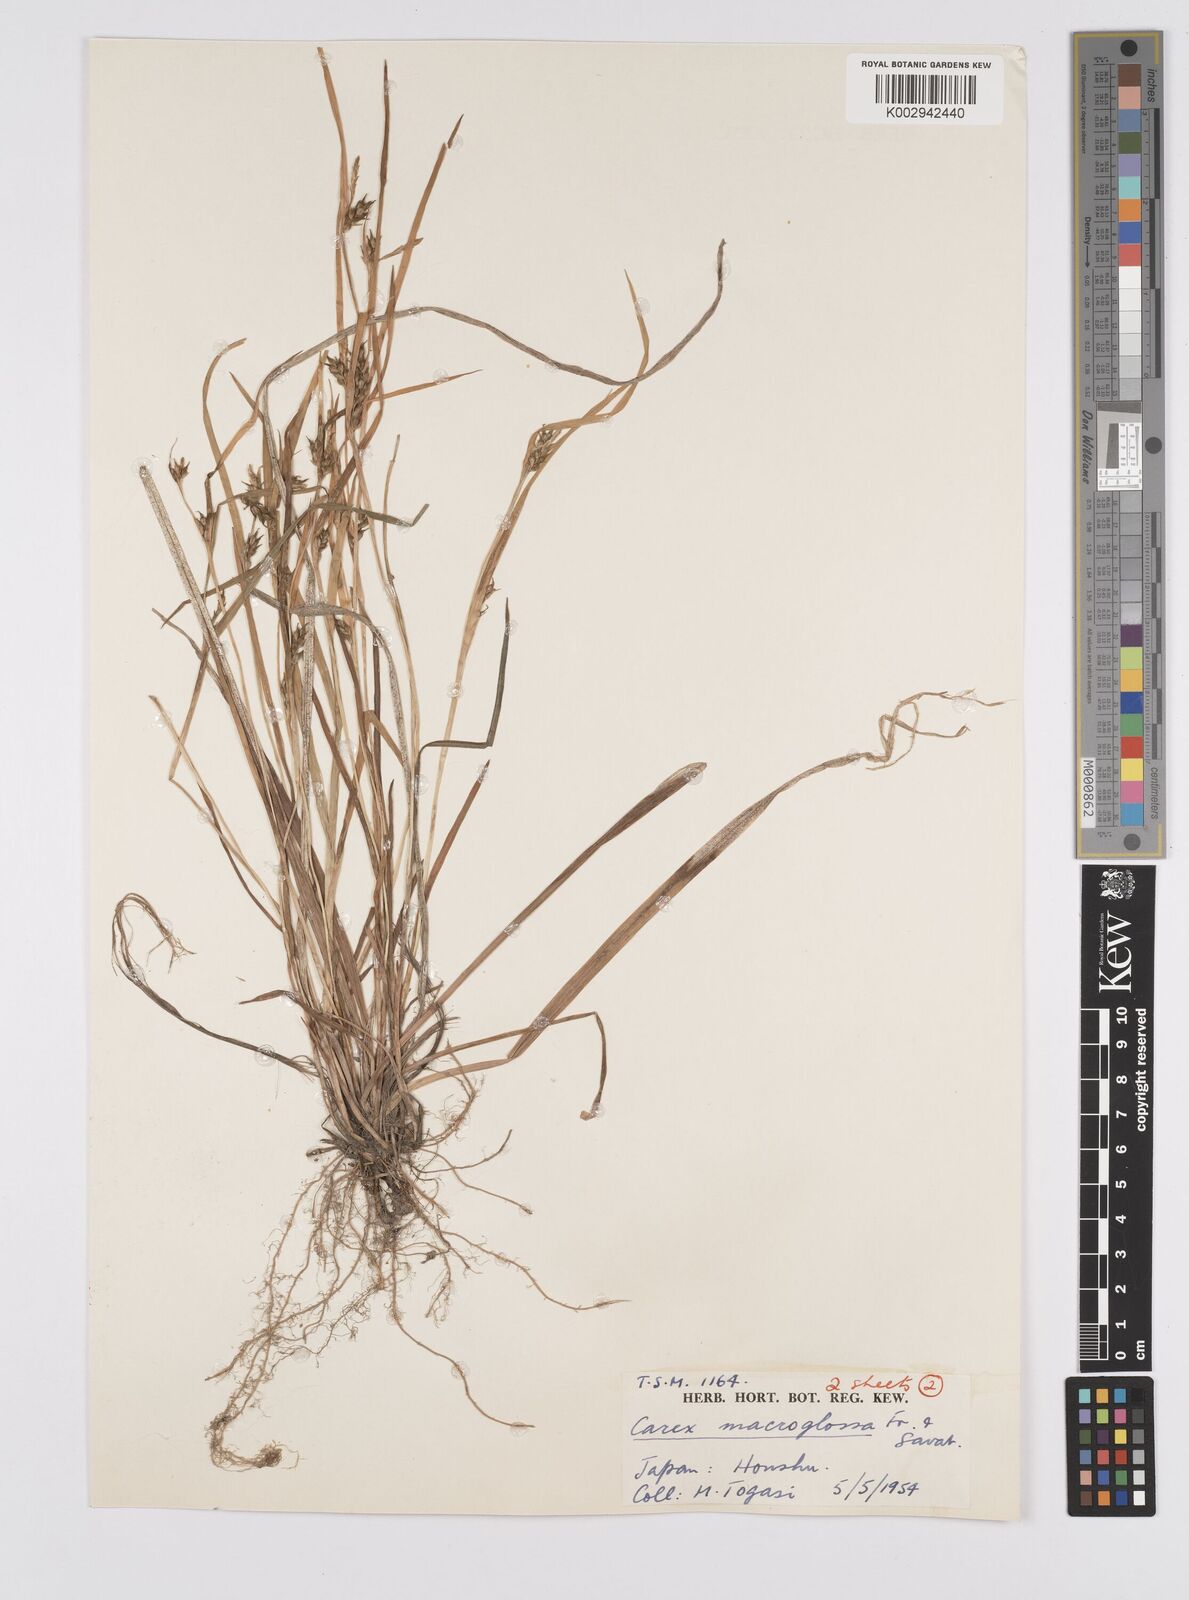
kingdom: Plantae
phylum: Tracheophyta
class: Liliopsida
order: Poales
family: Cyperaceae
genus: Carex
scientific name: Carex jackiana
